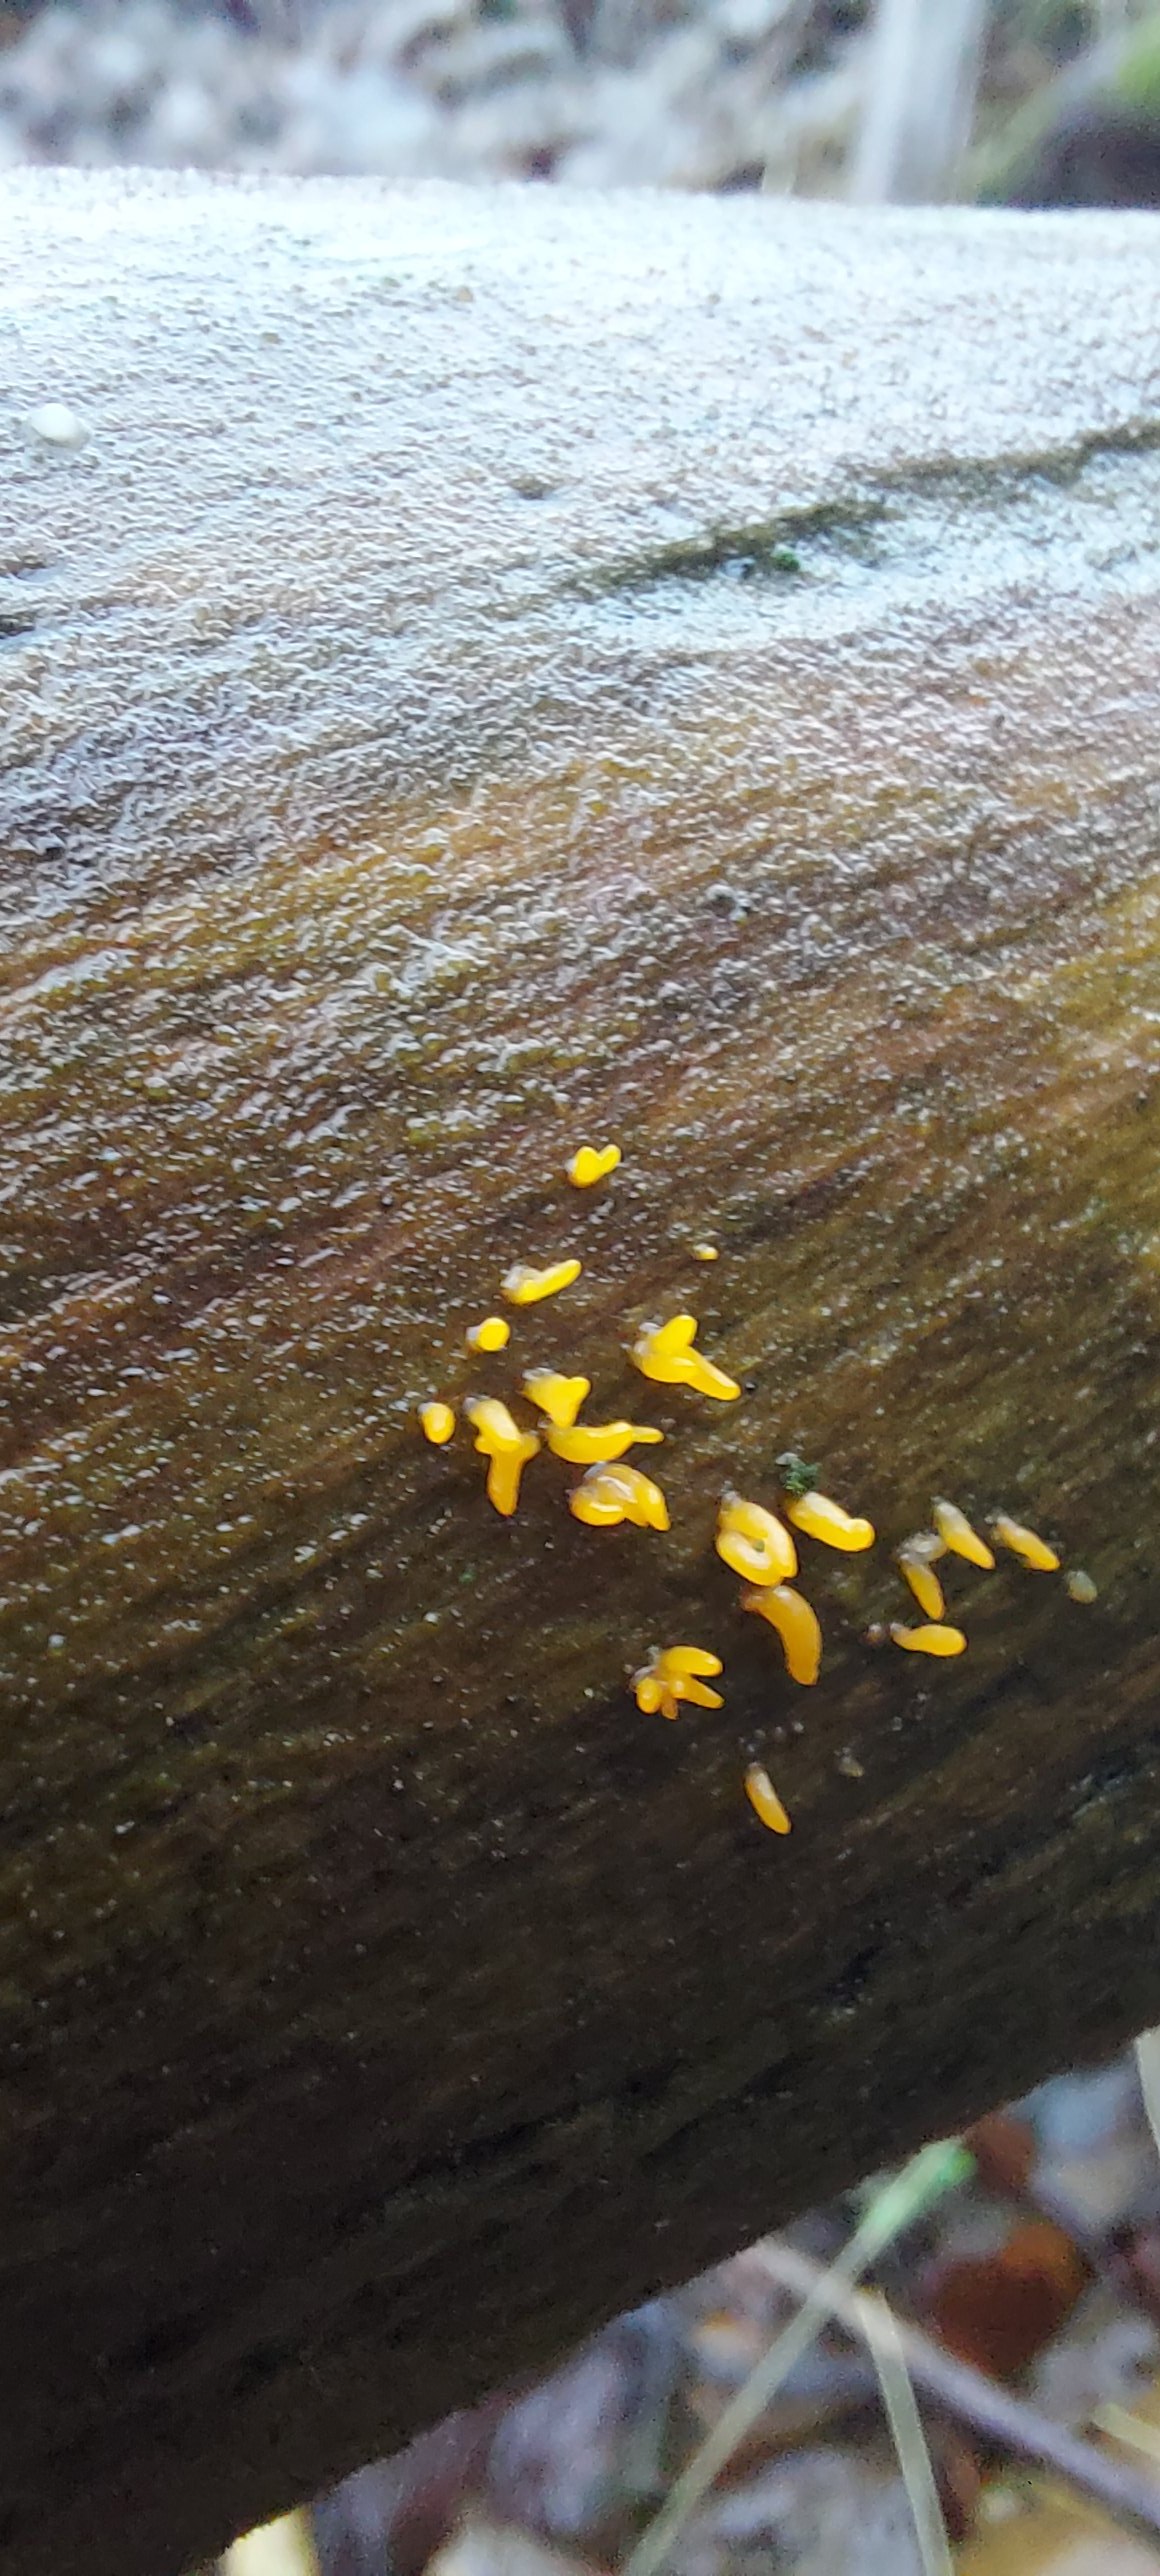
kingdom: Fungi
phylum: Basidiomycota
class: Dacrymycetes
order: Dacrymycetales
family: Dacrymycetaceae
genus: Calocera
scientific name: Calocera cornea
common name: liden guldgaffel
